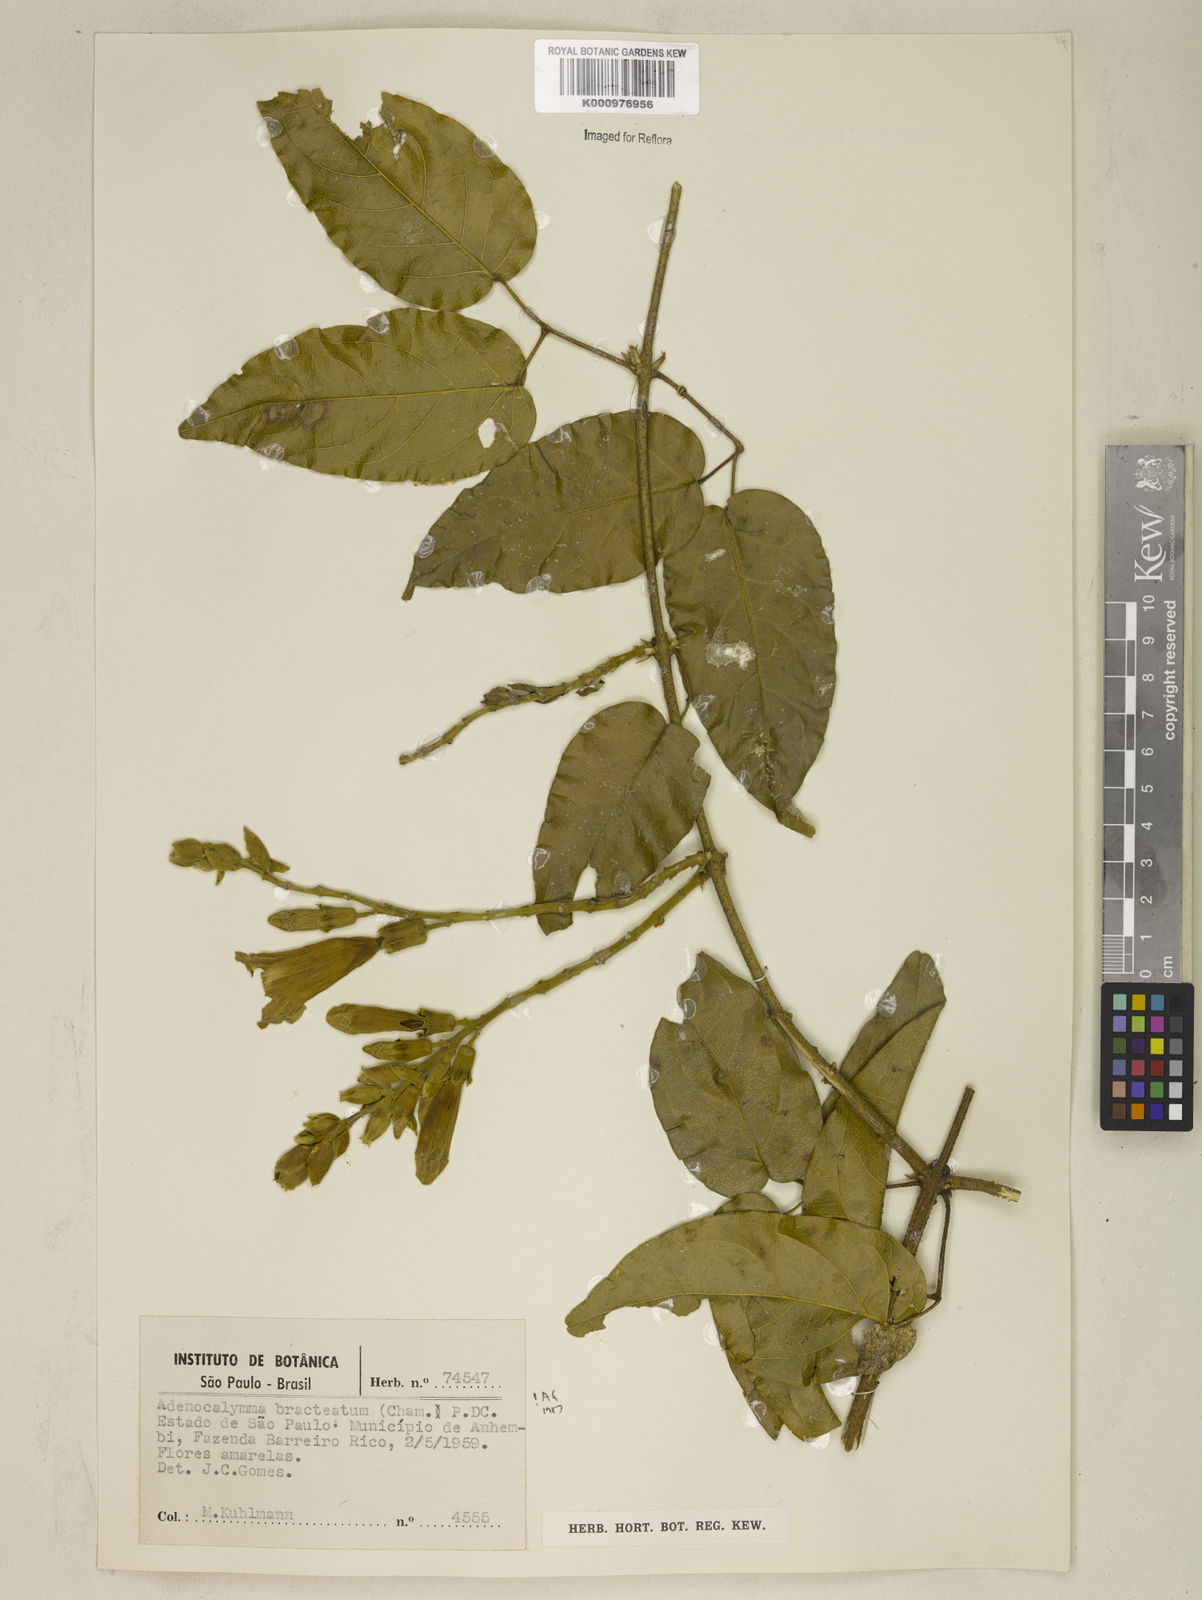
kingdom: Plantae
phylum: Tracheophyta
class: Magnoliopsida
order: Lamiales
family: Bignoniaceae
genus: Adenocalymma
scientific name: Adenocalymma bracteatum
